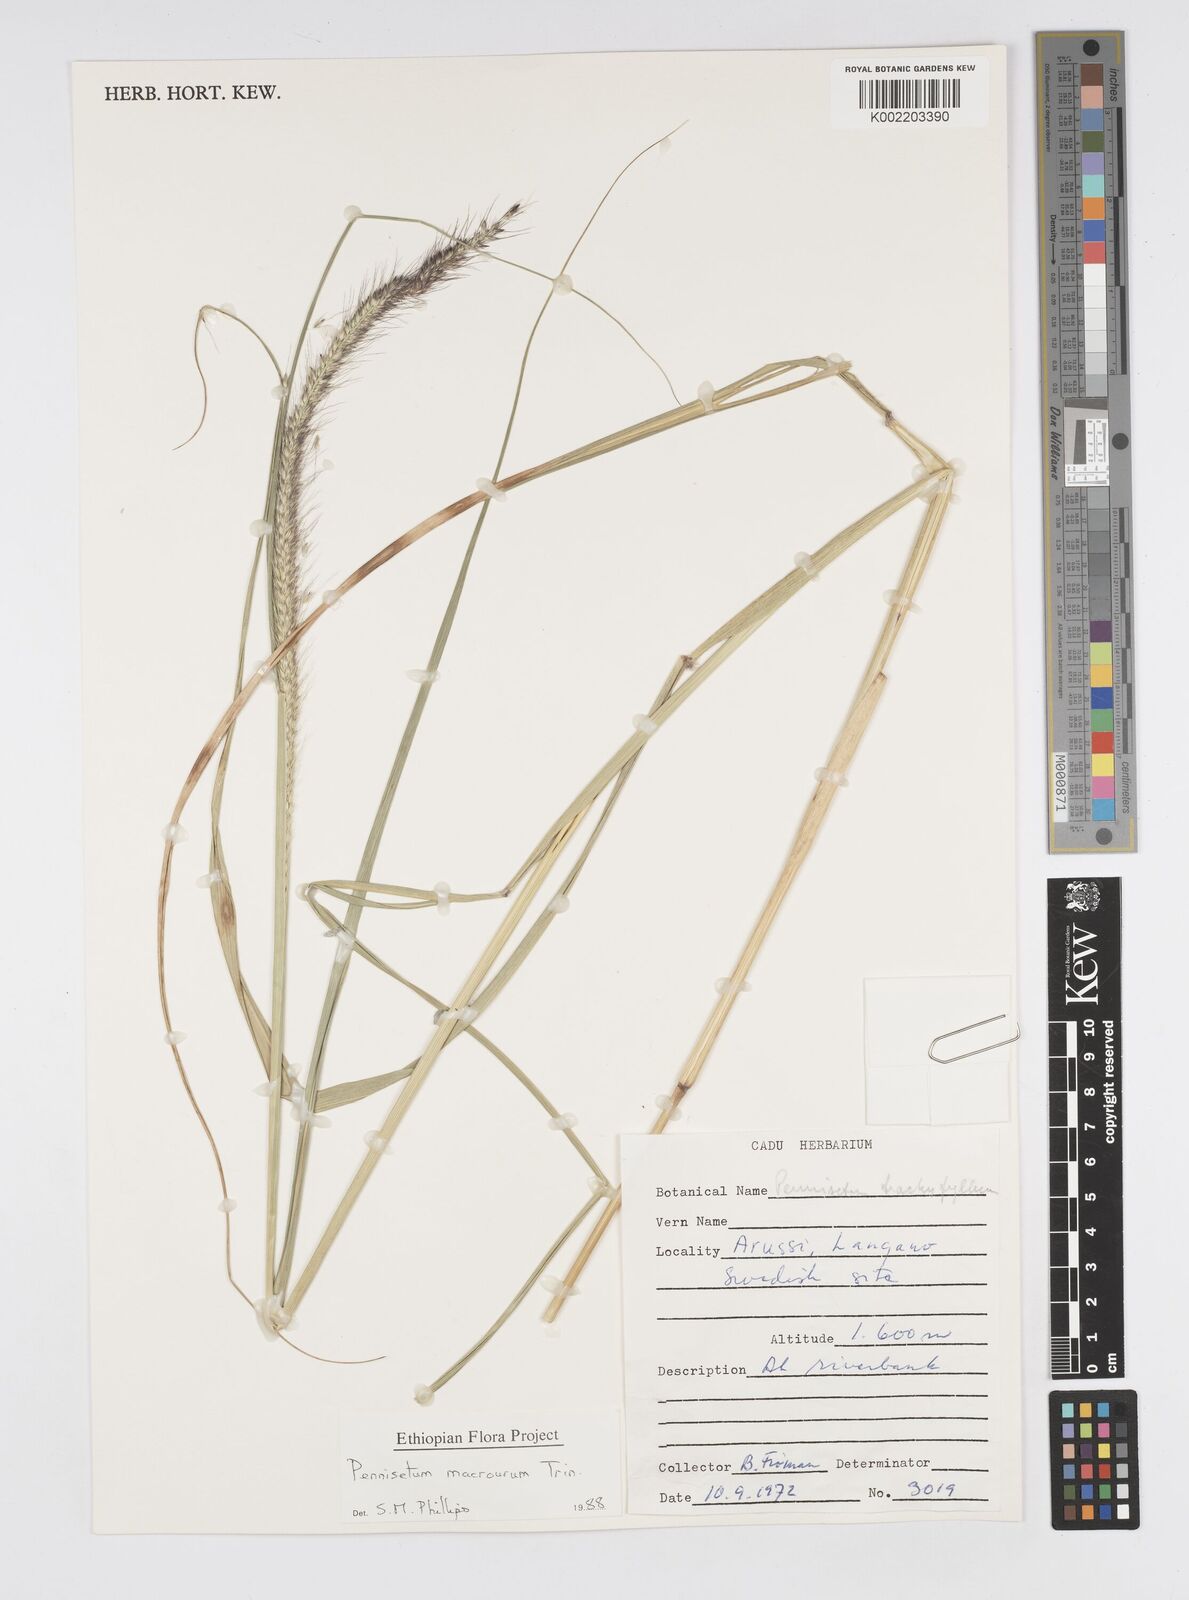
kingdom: Plantae
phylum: Tracheophyta
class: Liliopsida
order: Poales
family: Poaceae
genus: Cenchrus
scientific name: Cenchrus caudatus
